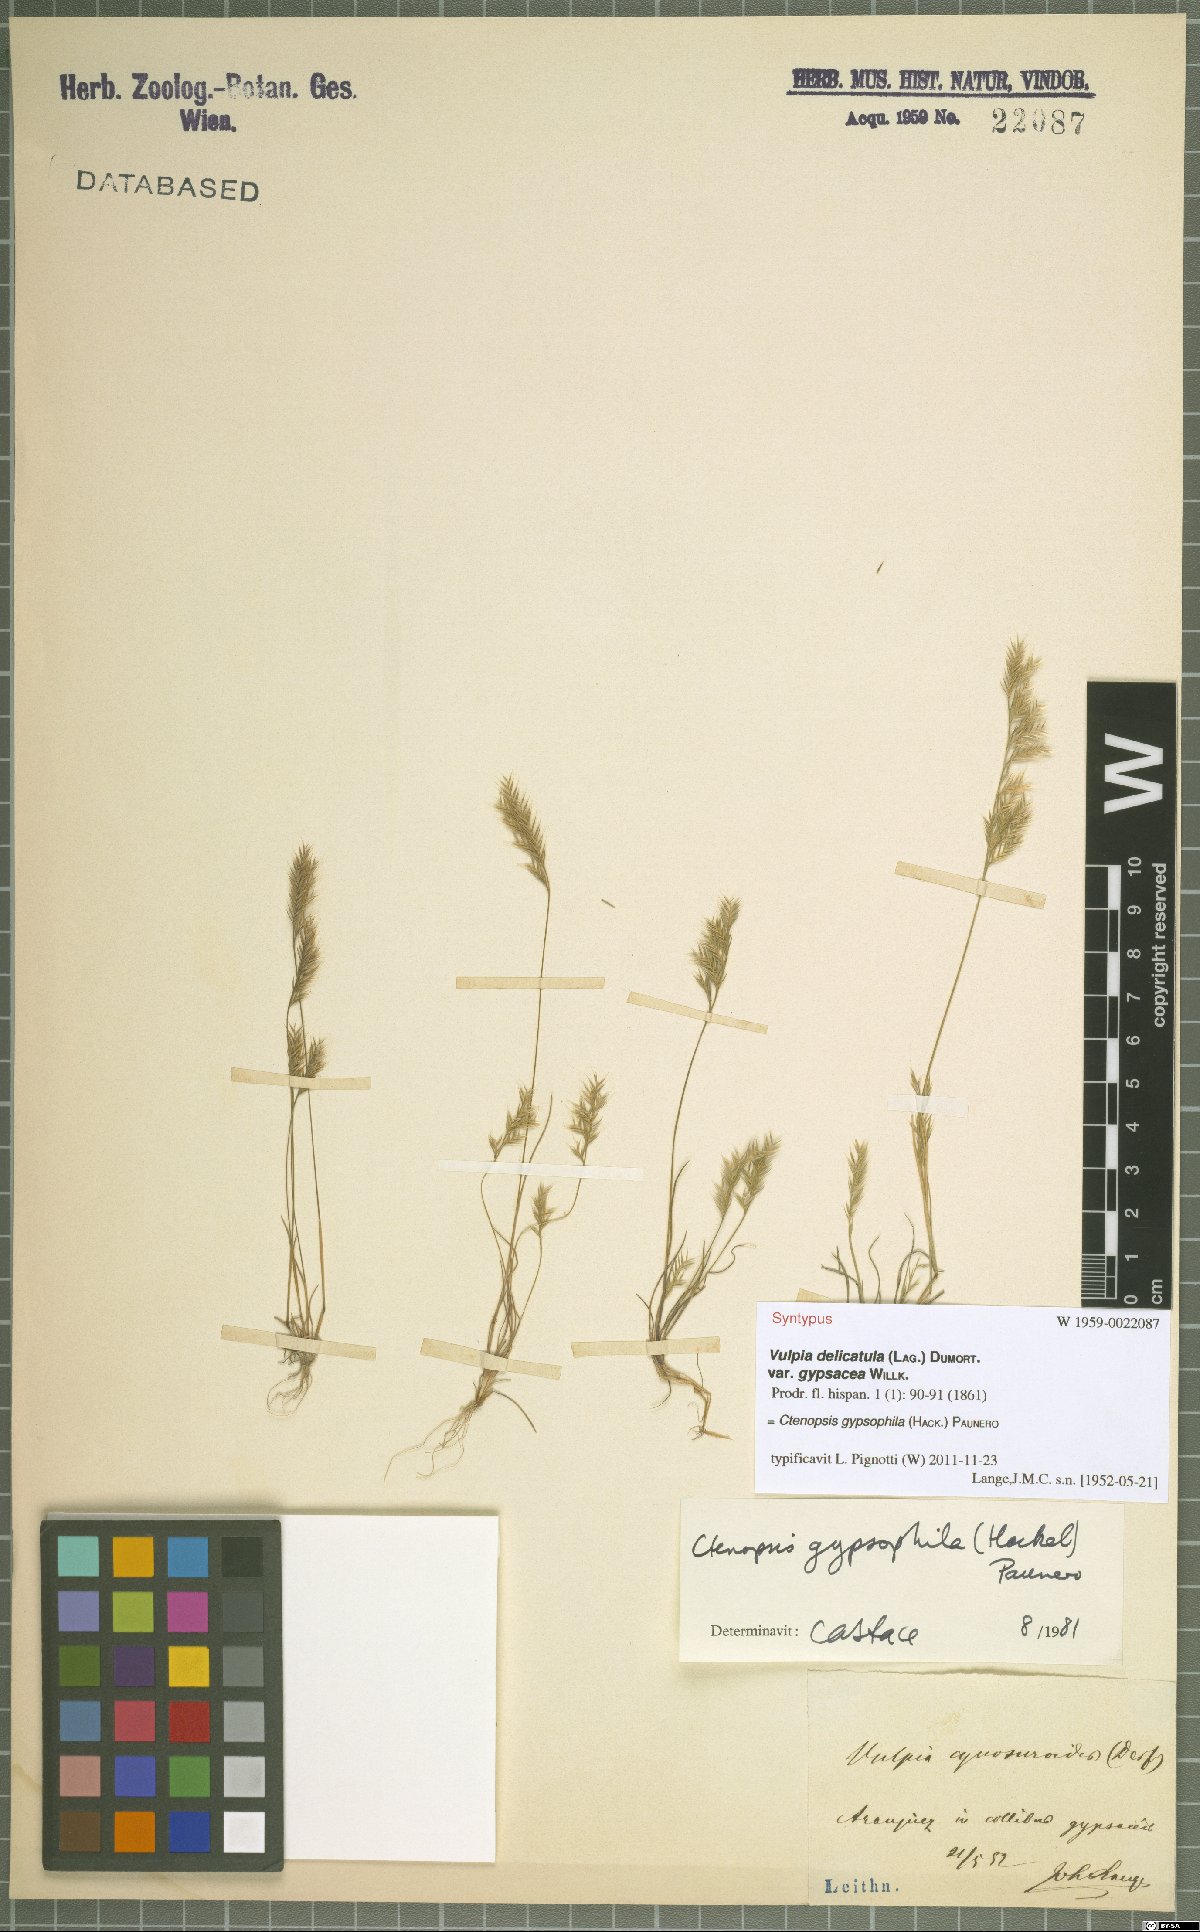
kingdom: Plantae
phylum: Tracheophyta
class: Liliopsida
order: Poales
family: Poaceae
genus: Festuca
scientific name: Festuca gypsophila
